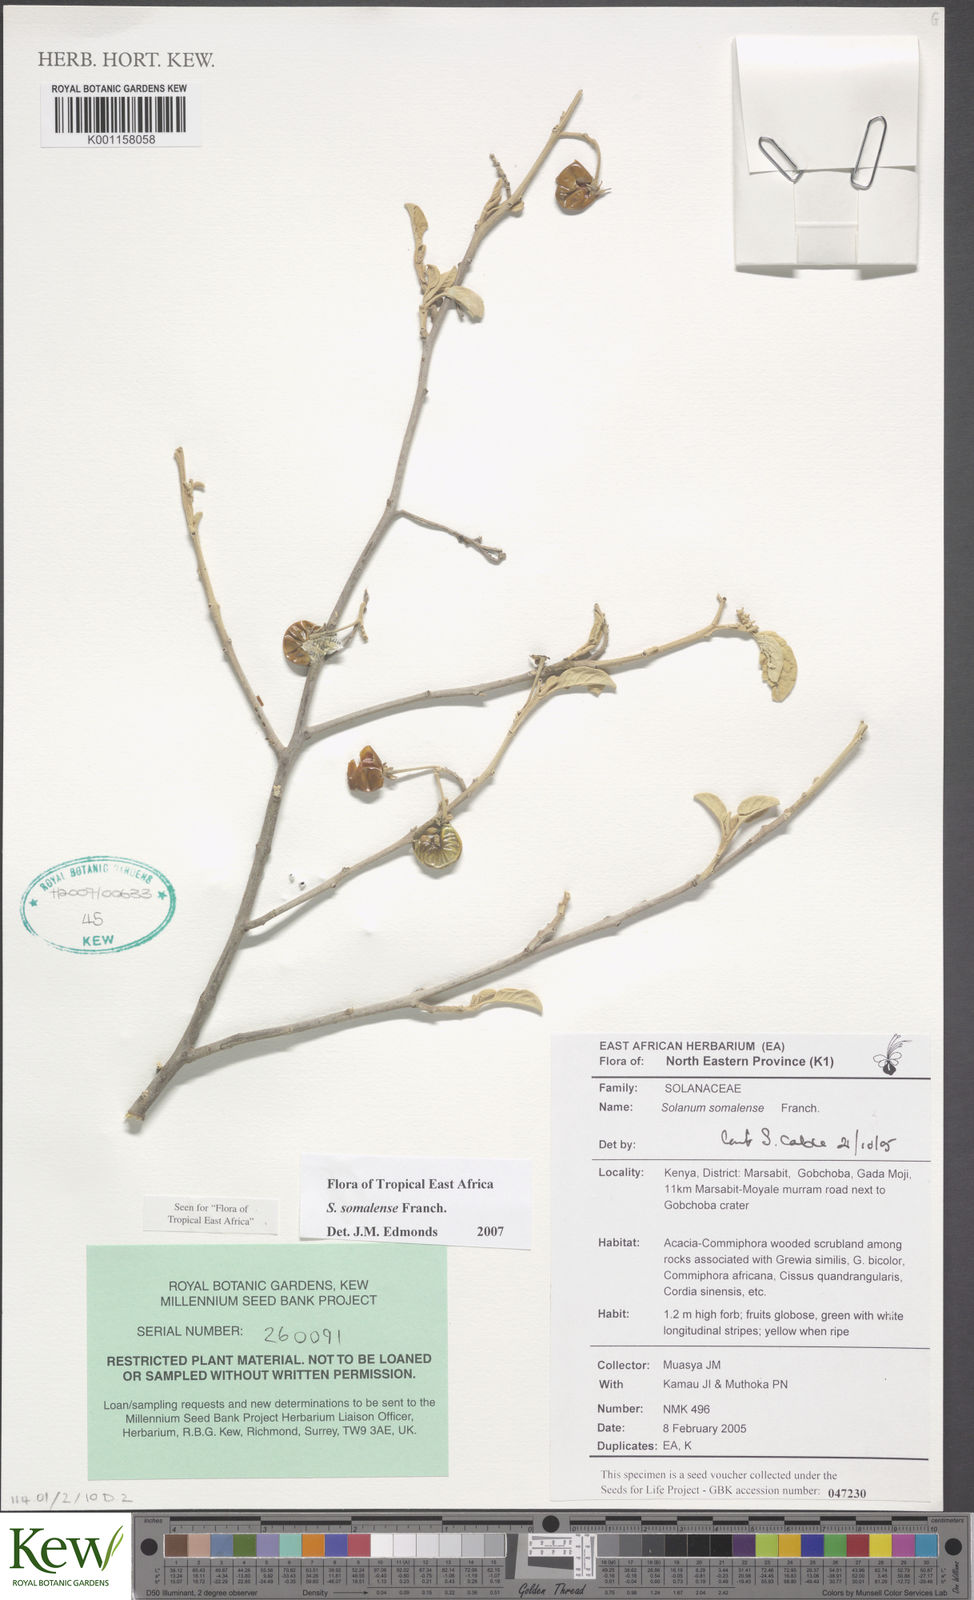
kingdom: Plantae
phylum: Tracheophyta
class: Magnoliopsida
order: Solanales
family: Solanaceae
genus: Solanum
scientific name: Solanum somalense
